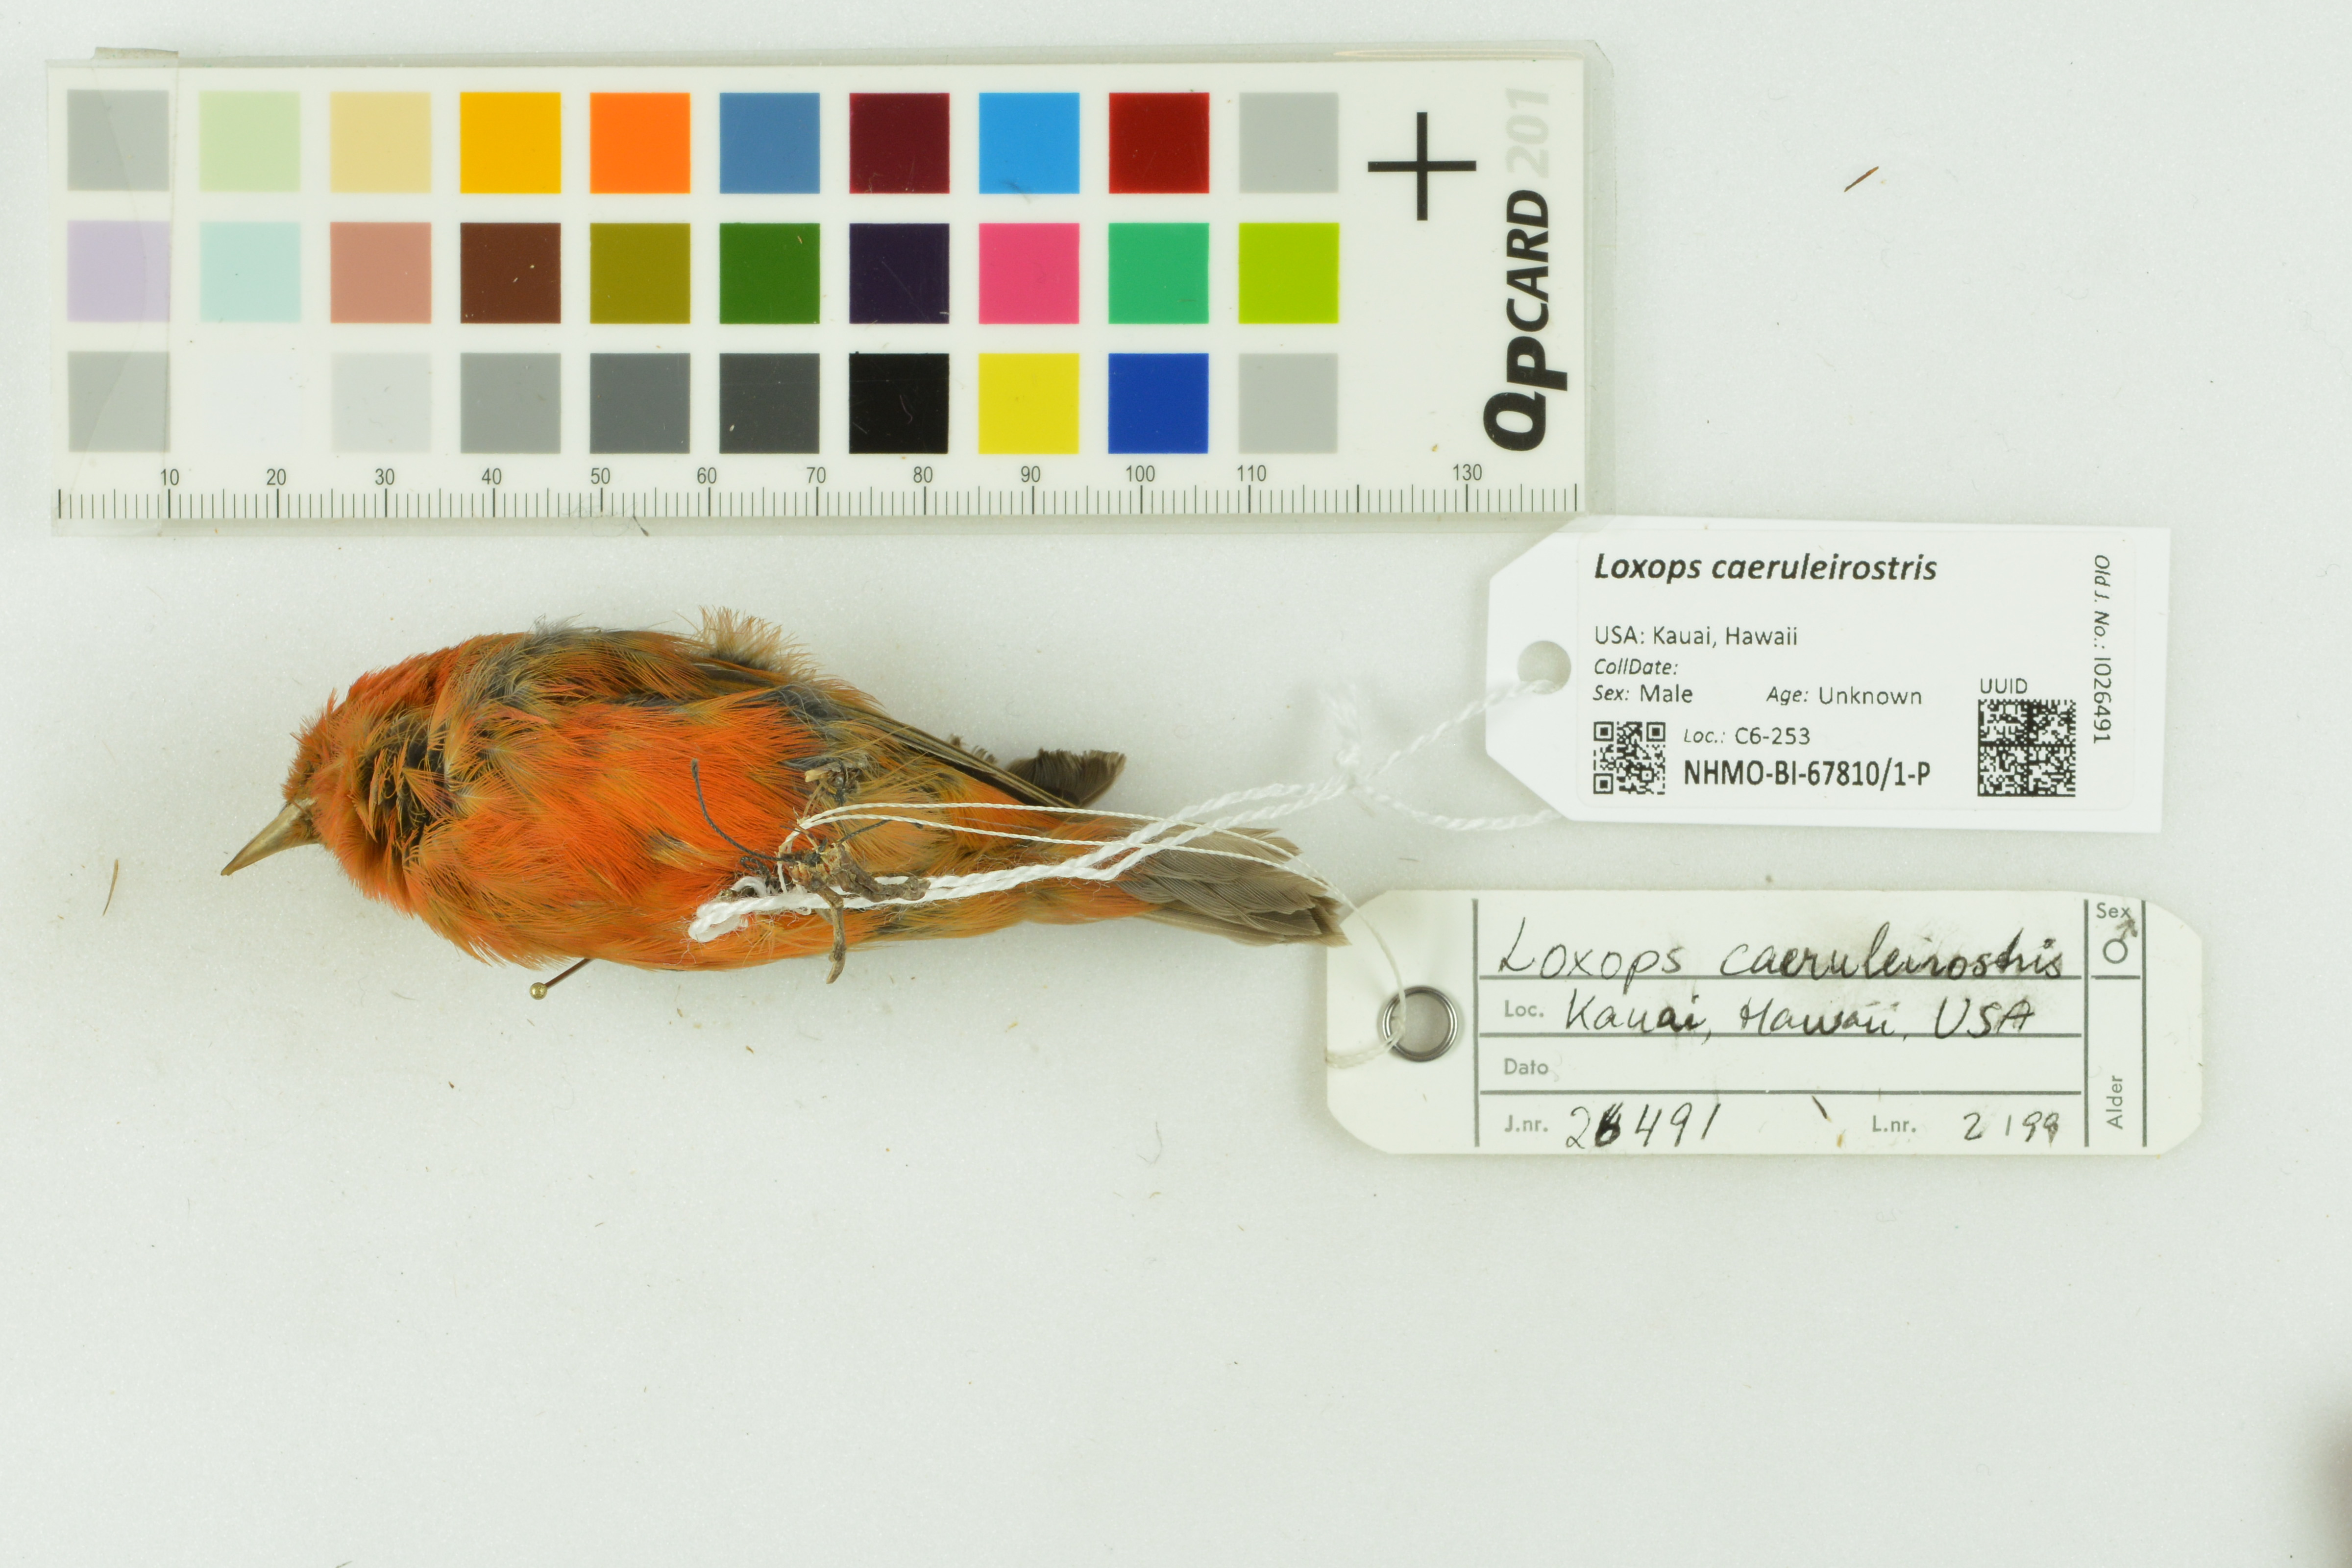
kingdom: Animalia
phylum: Chordata
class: Aves
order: Passeriformes
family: Fringillidae
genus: Loxops
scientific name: Loxops caeruleirostris
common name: Akekee
